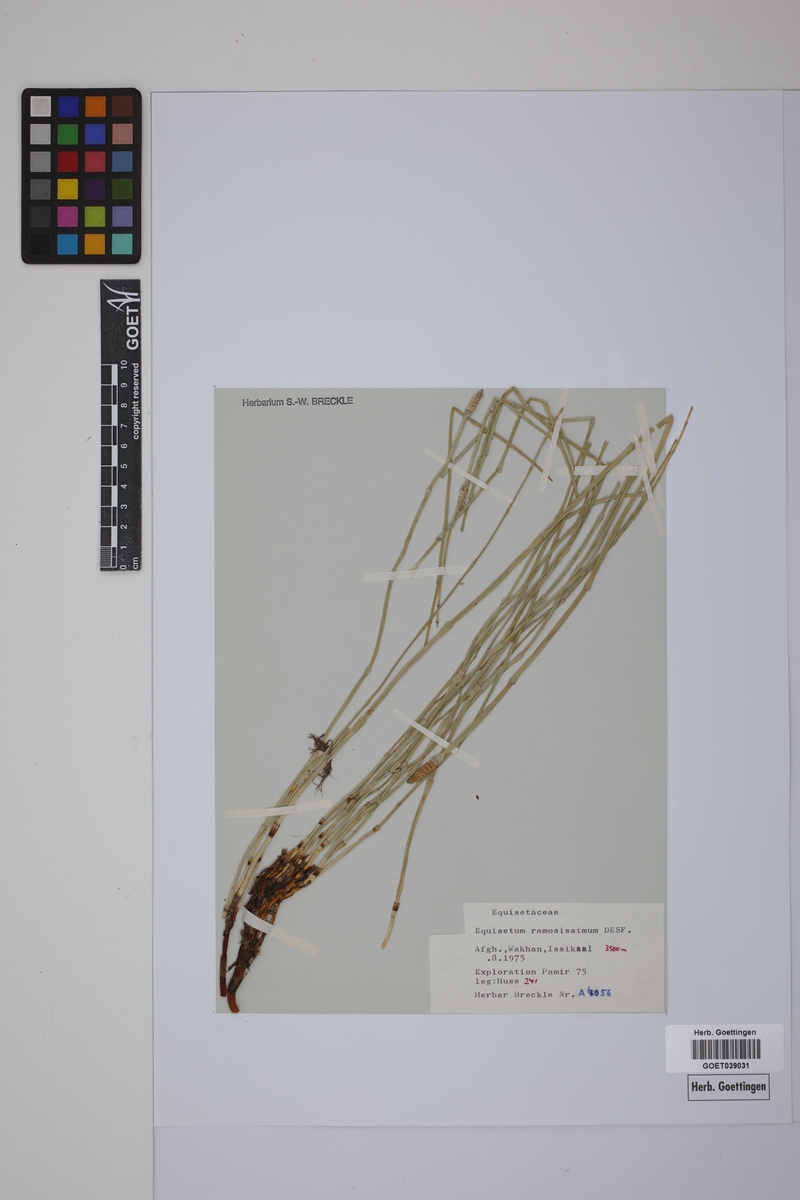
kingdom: Plantae
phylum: Tracheophyta
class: Polypodiopsida
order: Equisetales
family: Equisetaceae
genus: Equisetum
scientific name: Equisetum giganteum
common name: Giant horsetail
